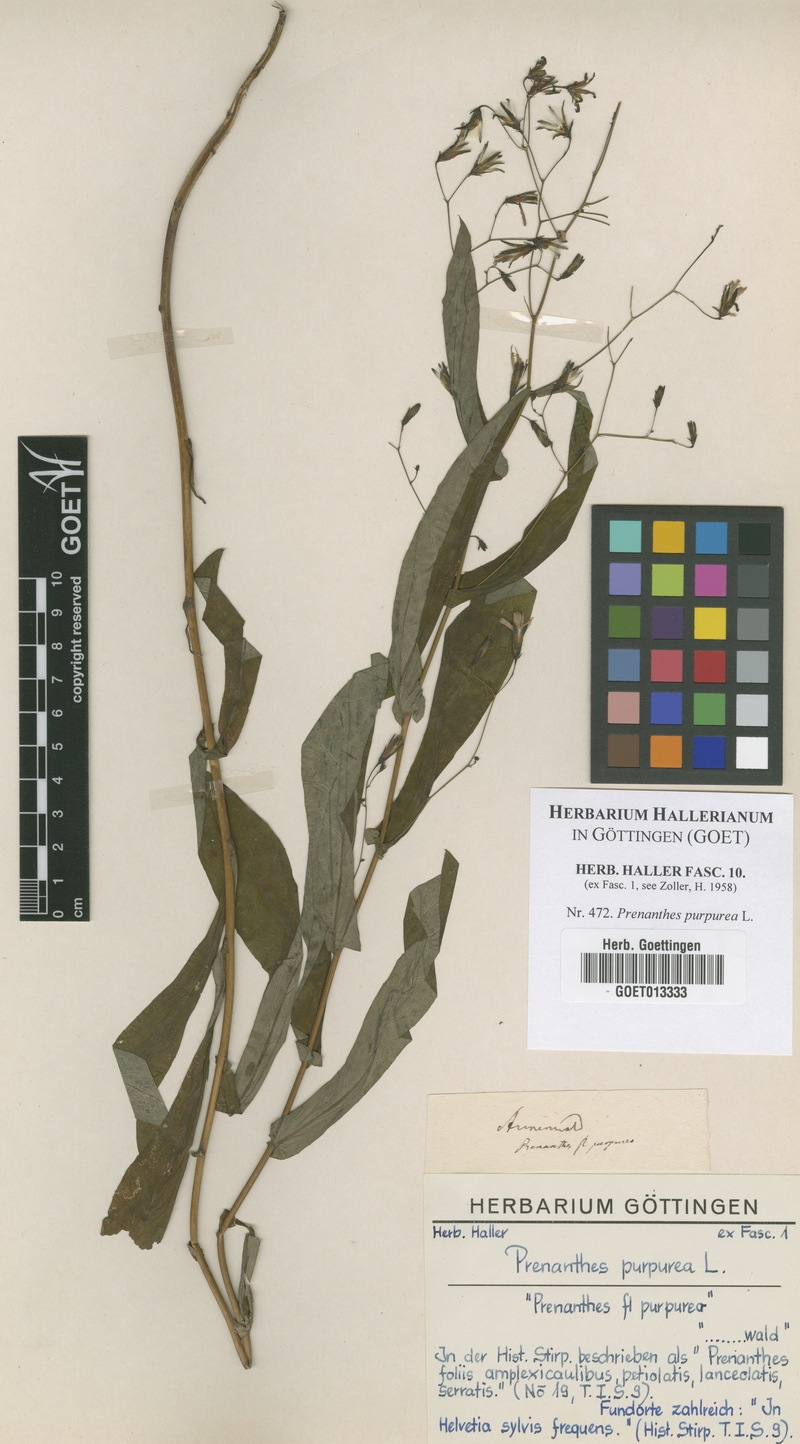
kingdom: Plantae
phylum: Tracheophyta
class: Magnoliopsida
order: Asterales
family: Asteraceae
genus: Prenanthes
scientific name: Prenanthes purpurea
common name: Purple lettuce
